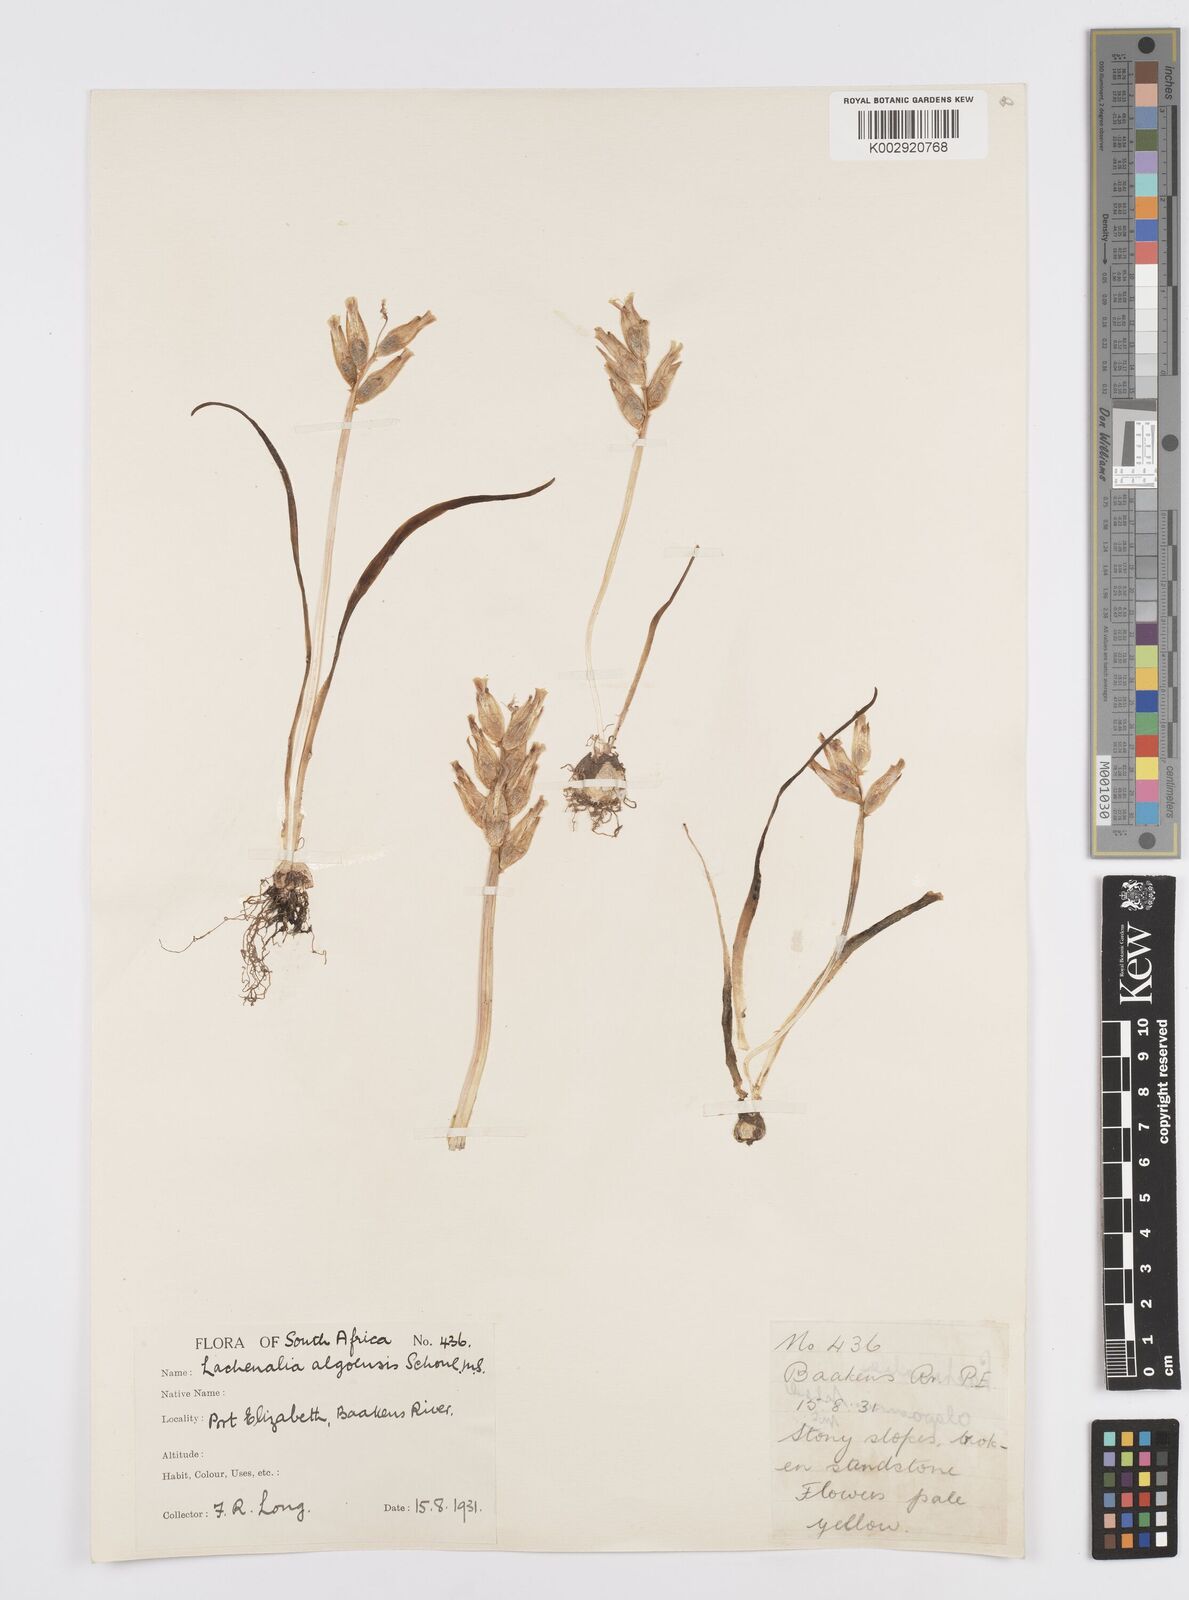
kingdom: Plantae
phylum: Tracheophyta
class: Liliopsida
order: Asparagales
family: Asparagaceae
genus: Lachenalia
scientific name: Lachenalia algoensis
